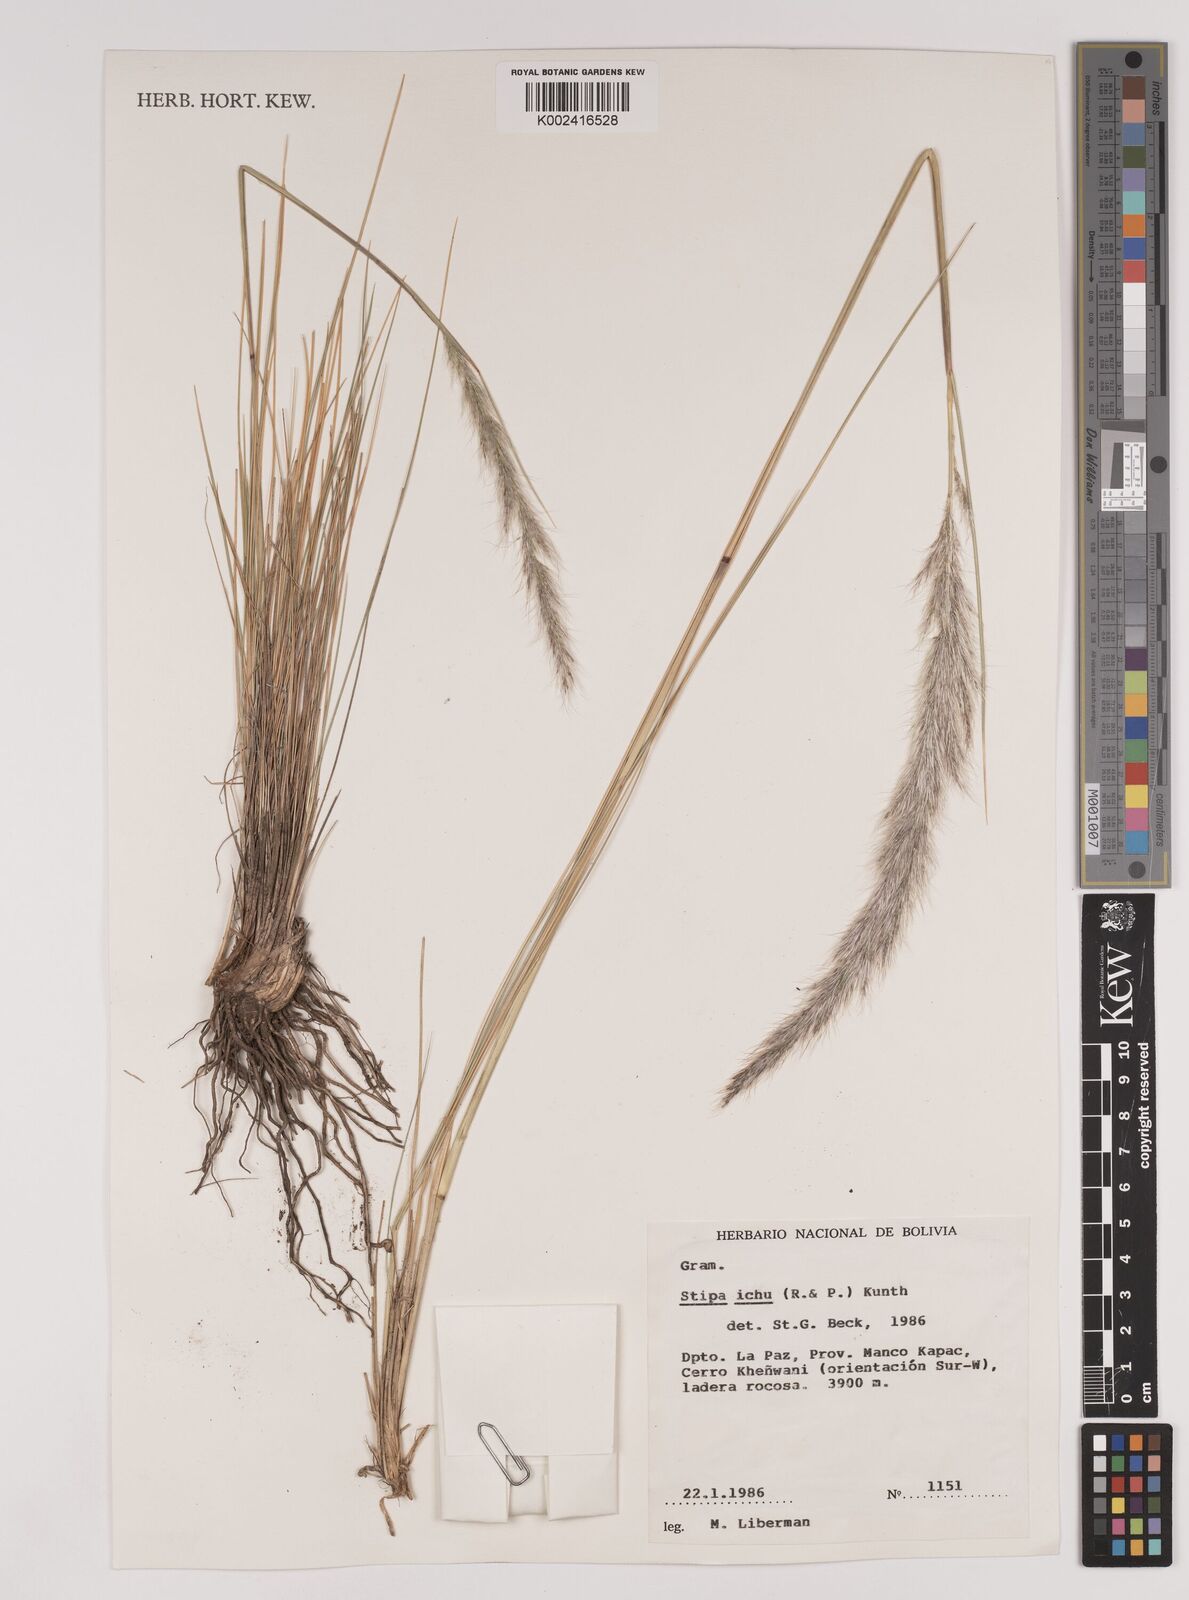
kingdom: Plantae
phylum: Tracheophyta
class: Liliopsida
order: Poales
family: Poaceae
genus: Jarava
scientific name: Jarava ichu
